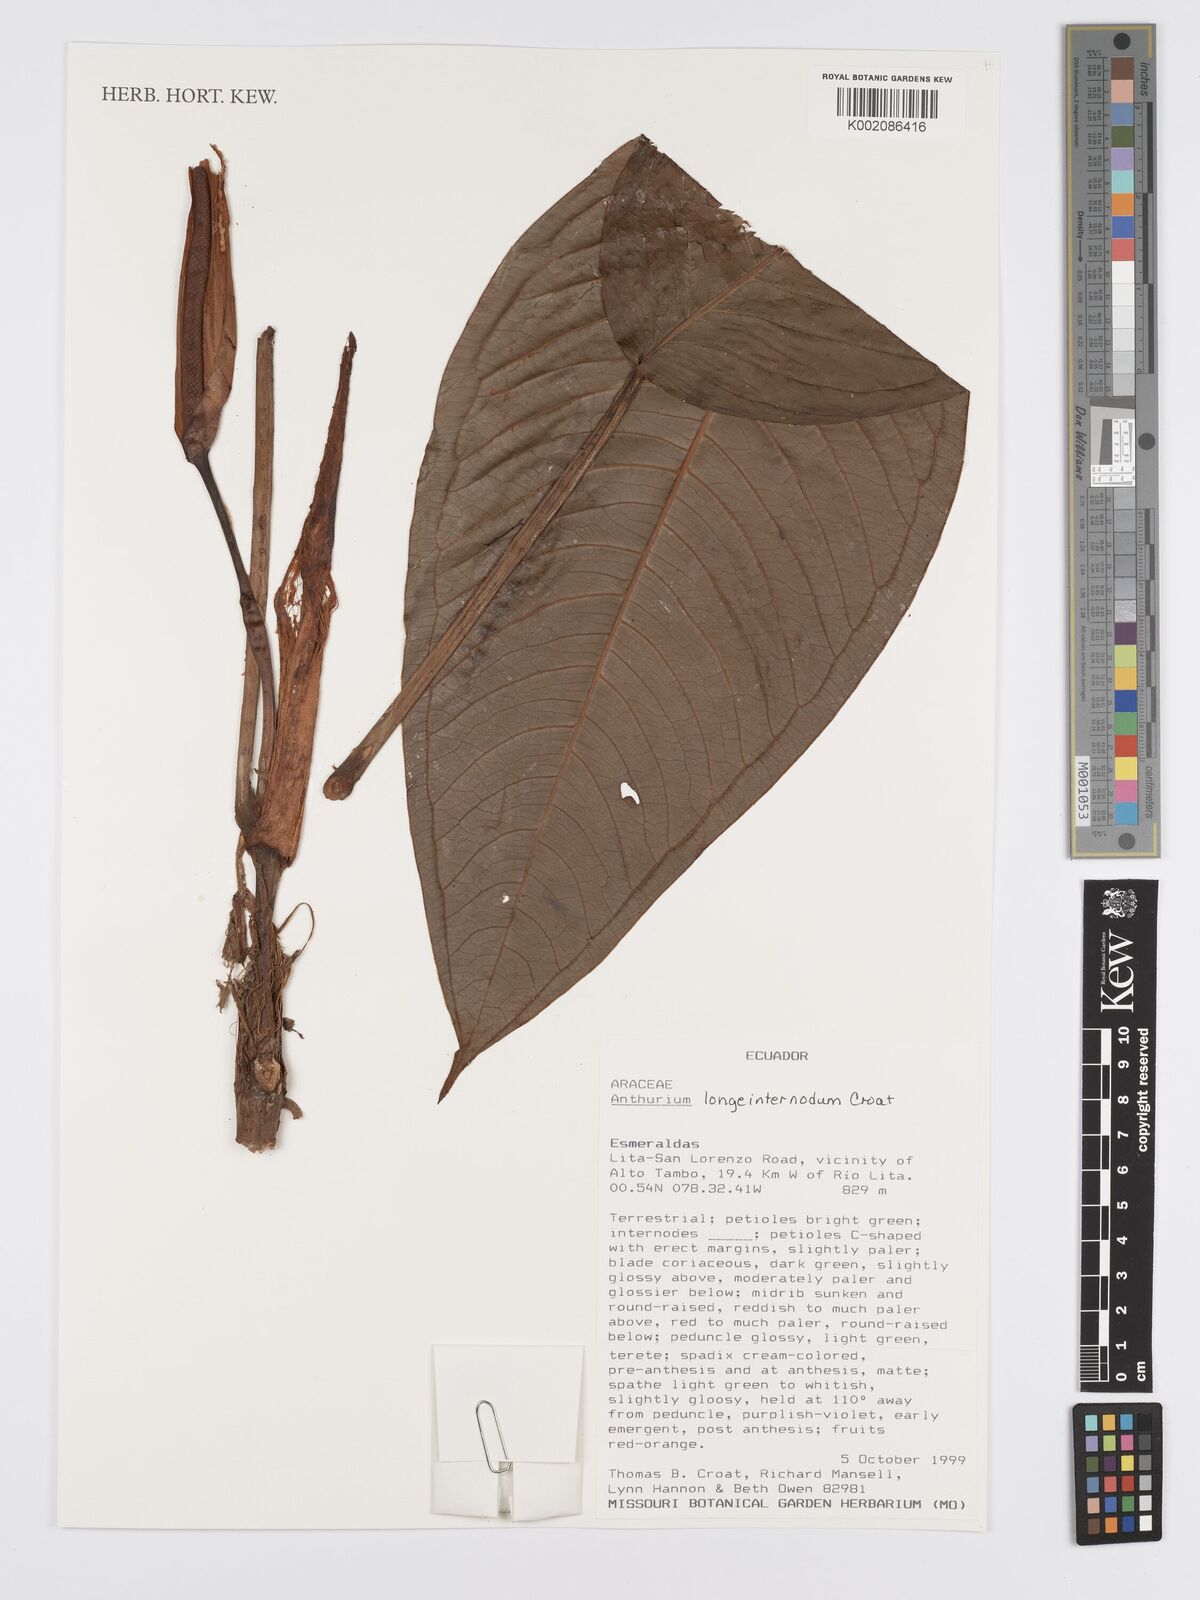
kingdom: Plantae
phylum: Tracheophyta
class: Liliopsida
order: Alismatales
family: Araceae
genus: Anthurium
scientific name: Anthurium longeinternodum
